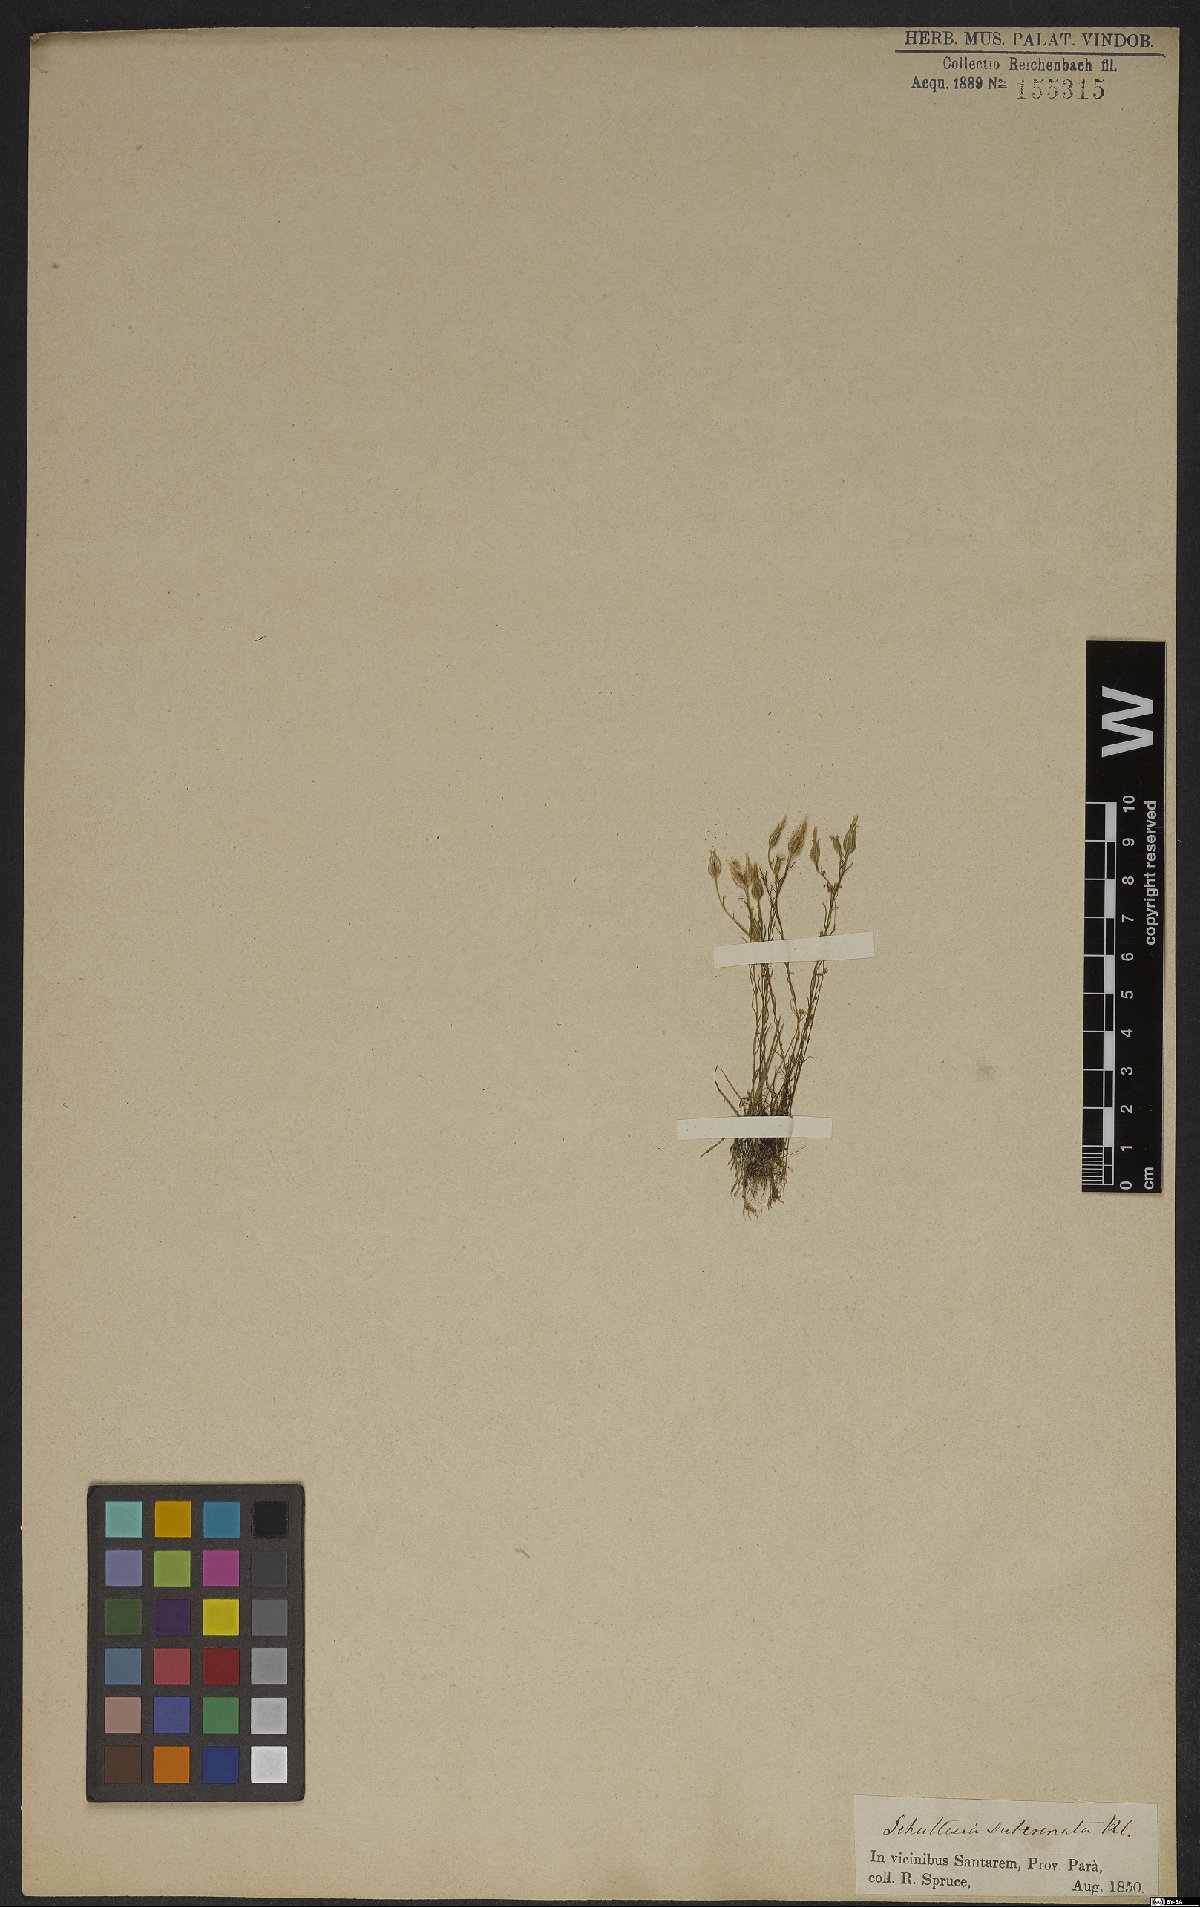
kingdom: Plantae
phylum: Tracheophyta
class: Magnoliopsida
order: Gentianales
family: Gentianaceae
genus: Schultesia
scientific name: Schultesia subcrenata
